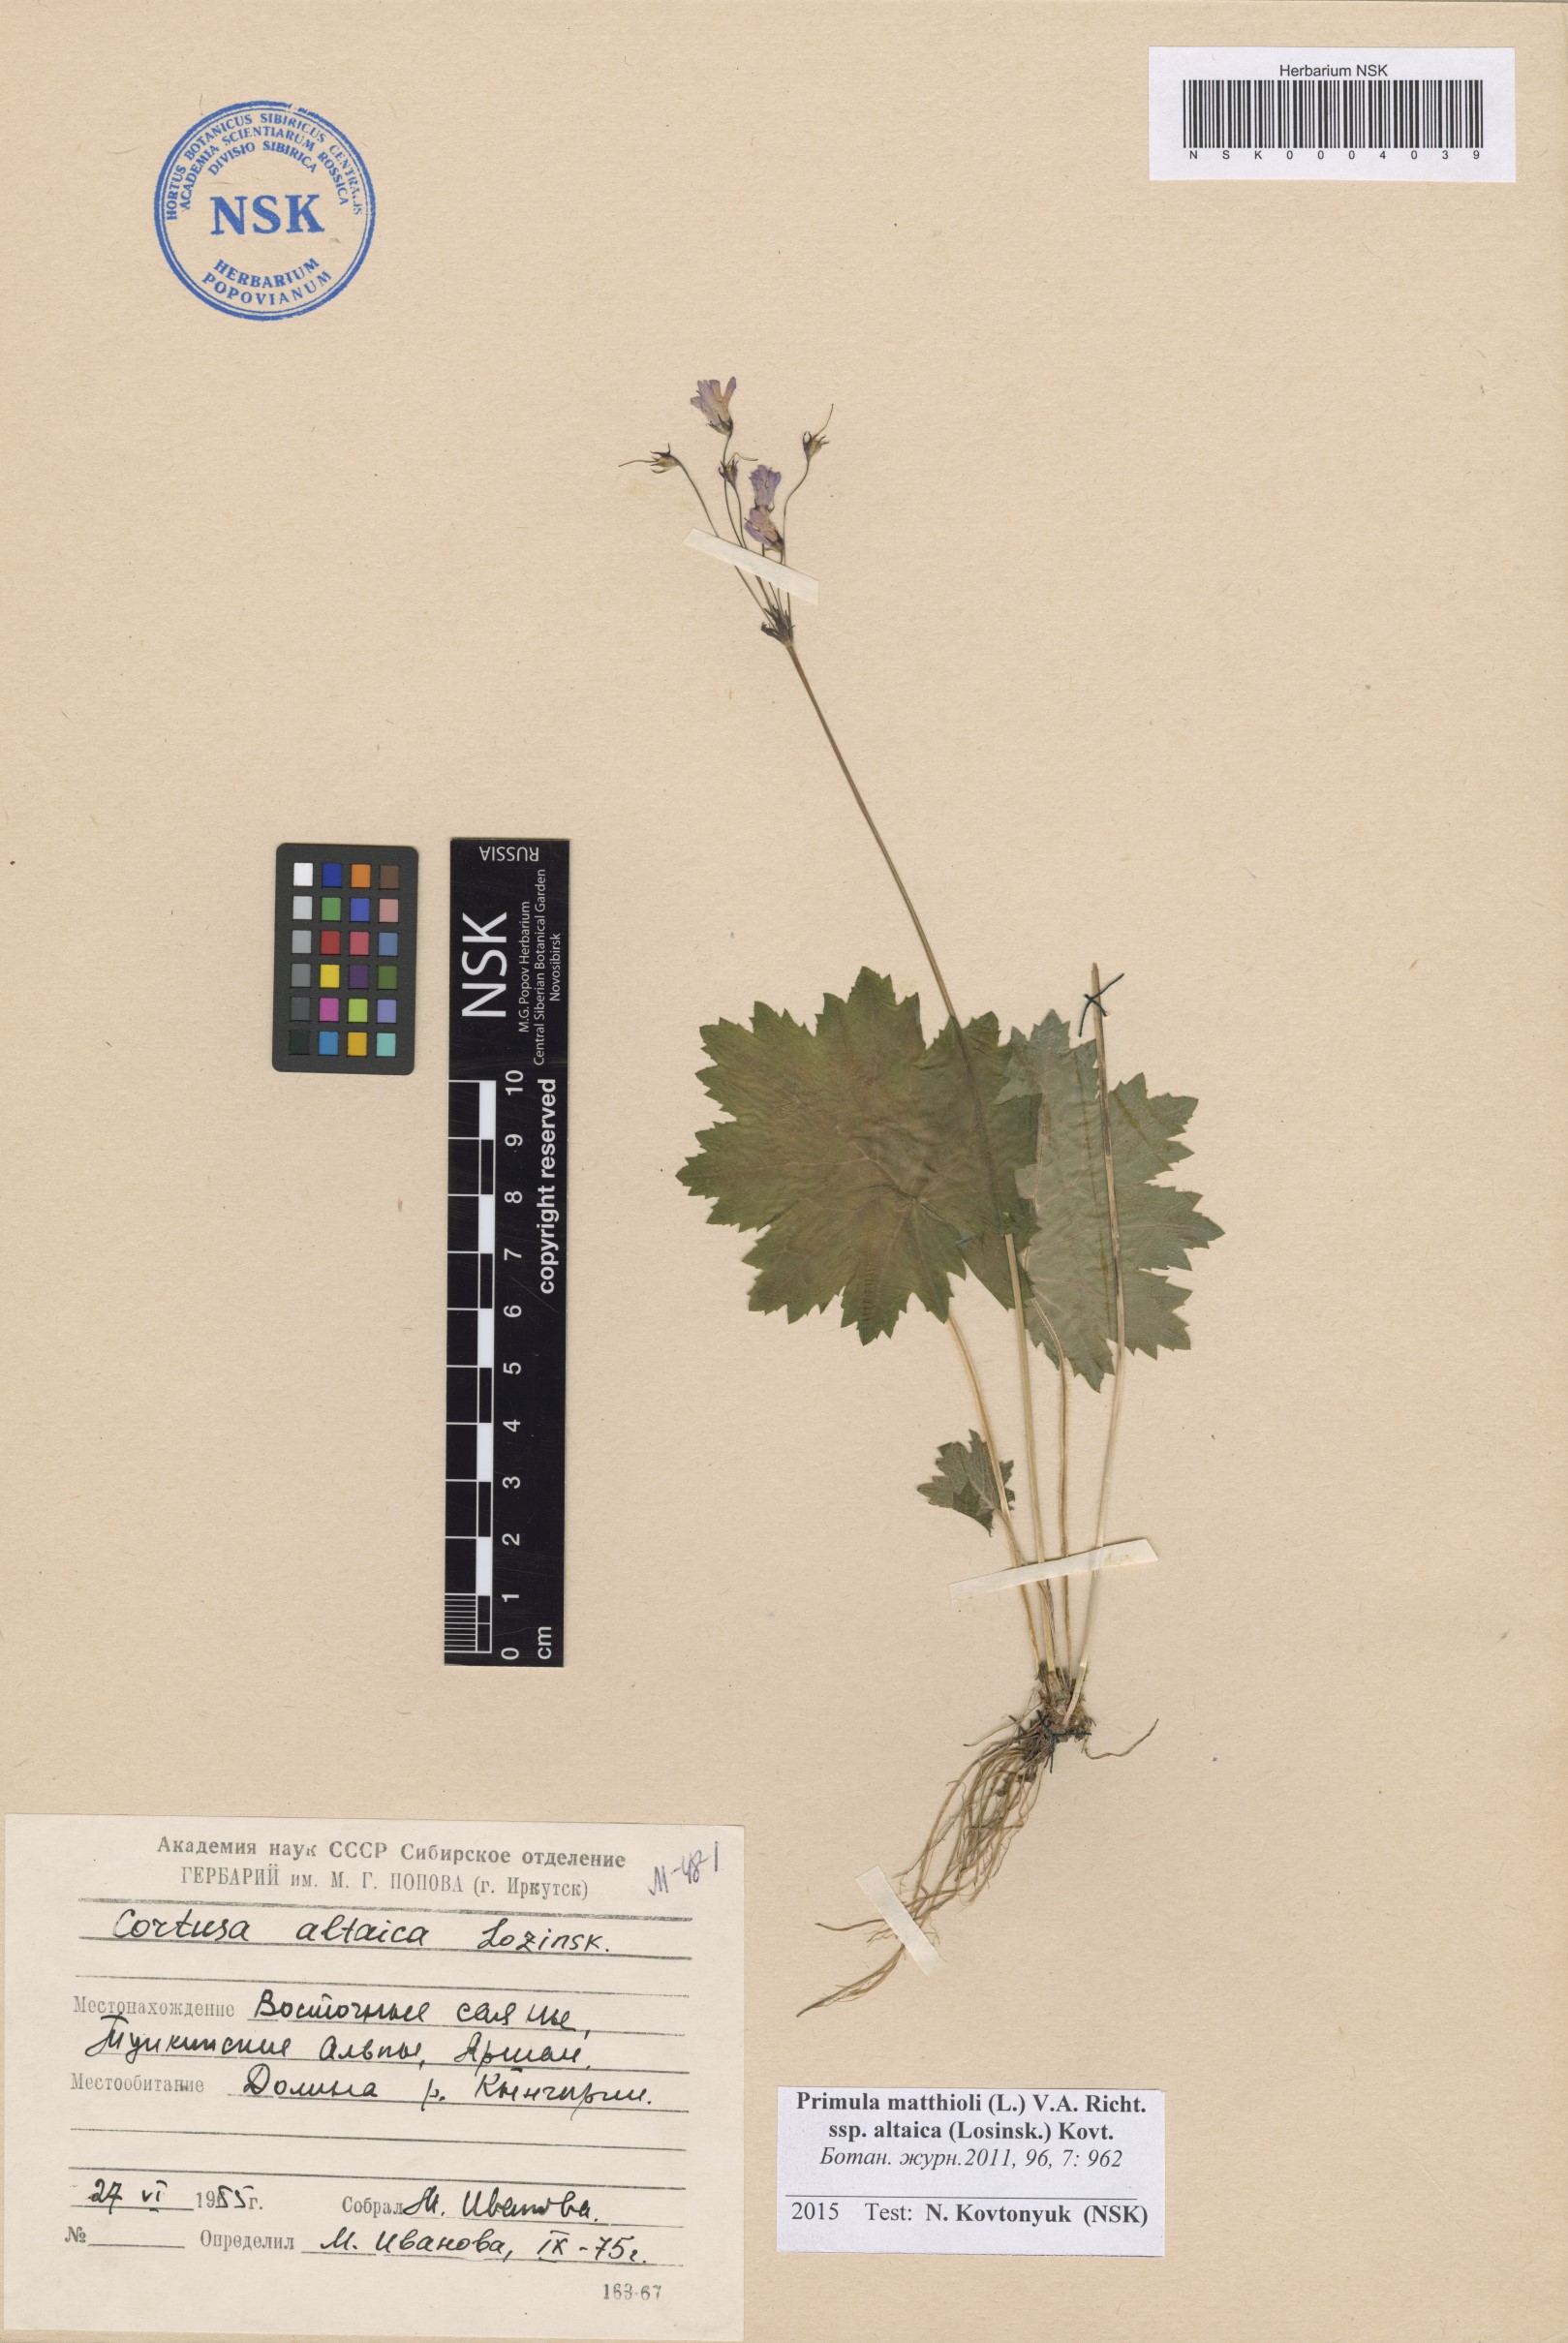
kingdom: Plantae
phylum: Tracheophyta
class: Magnoliopsida
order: Ericales
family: Primulaceae
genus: Primula
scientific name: Primula matthioli
